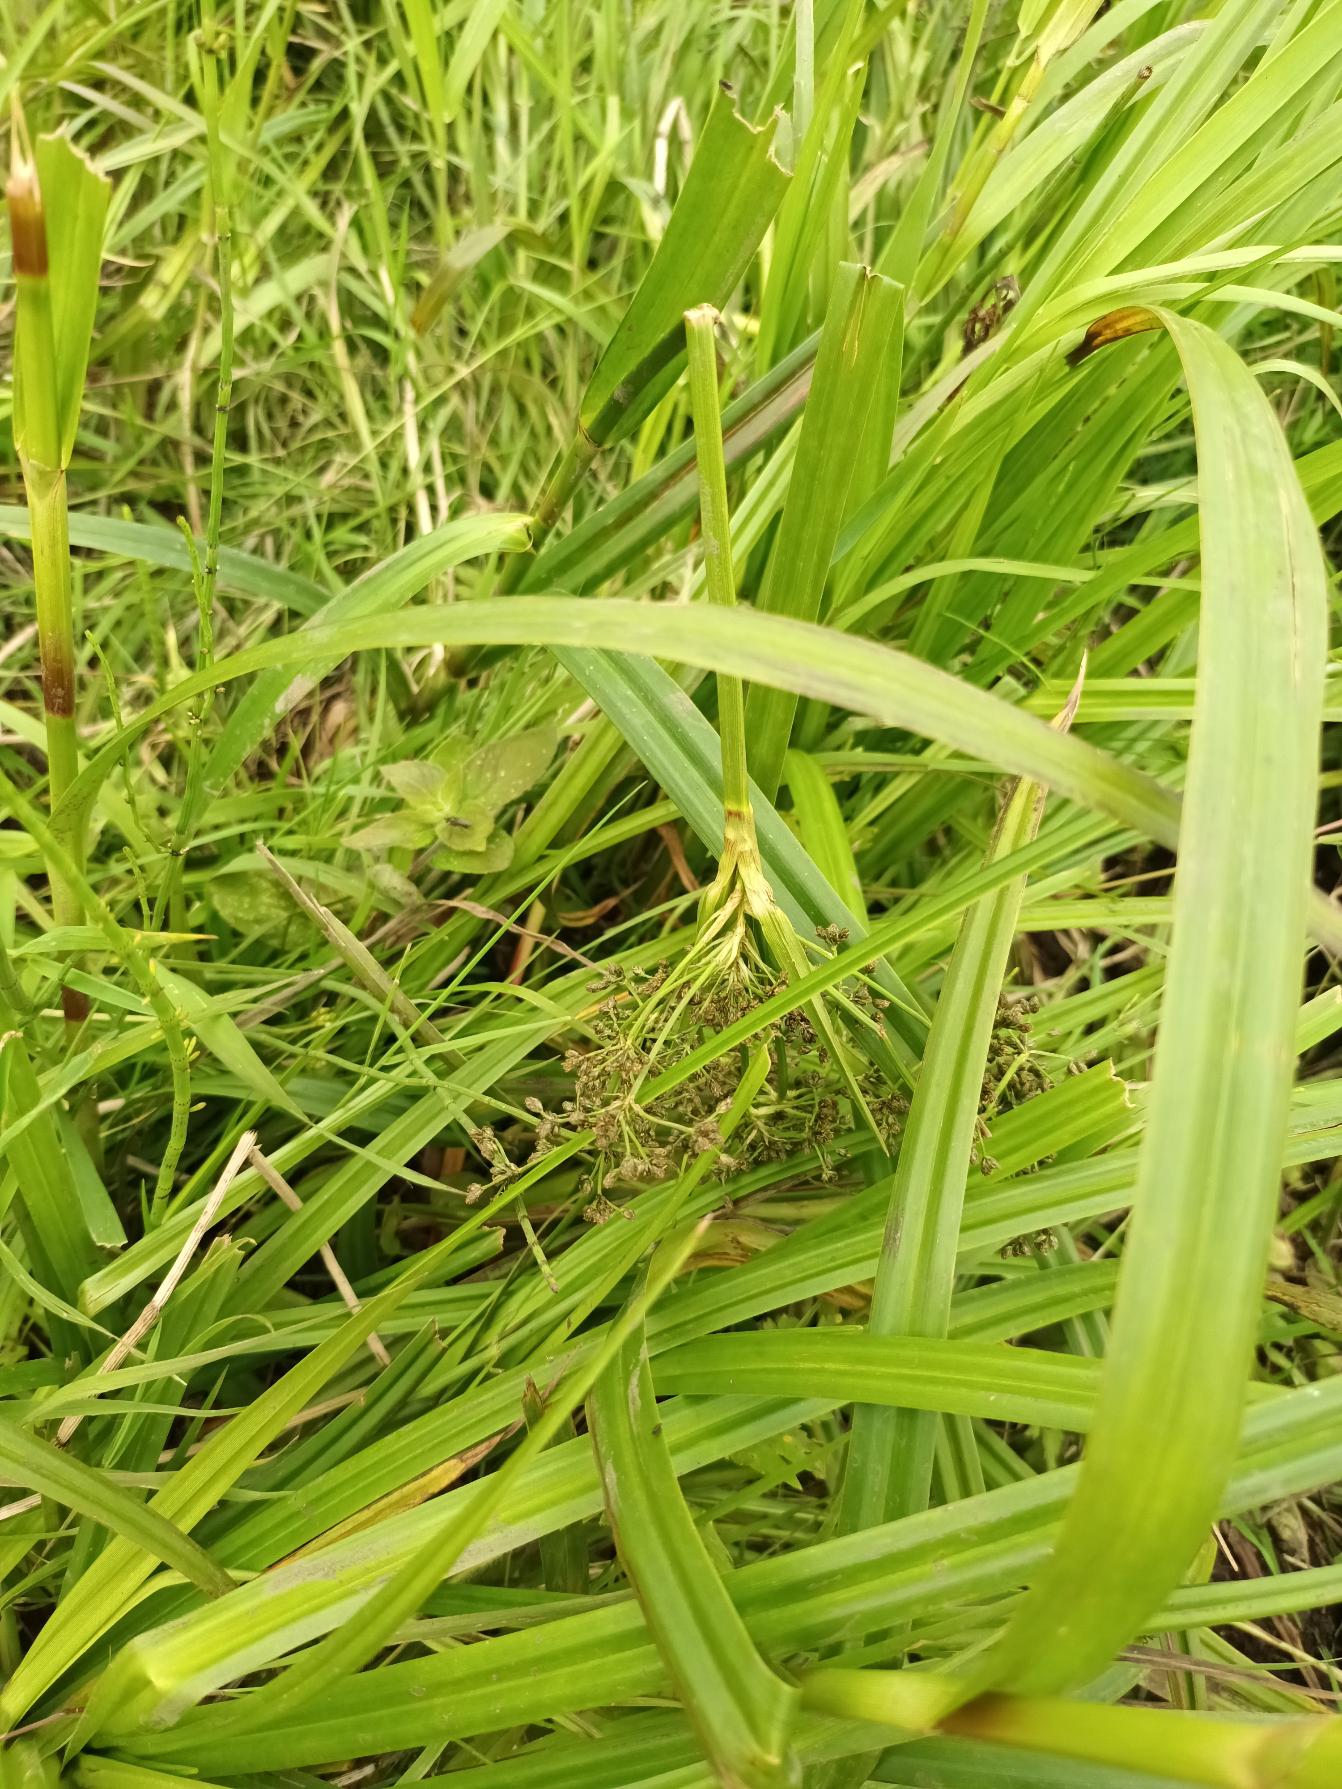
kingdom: Plantae
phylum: Tracheophyta
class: Liliopsida
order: Poales
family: Cyperaceae
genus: Scirpus
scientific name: Scirpus sylvaticus
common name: Skov-kogleaks
